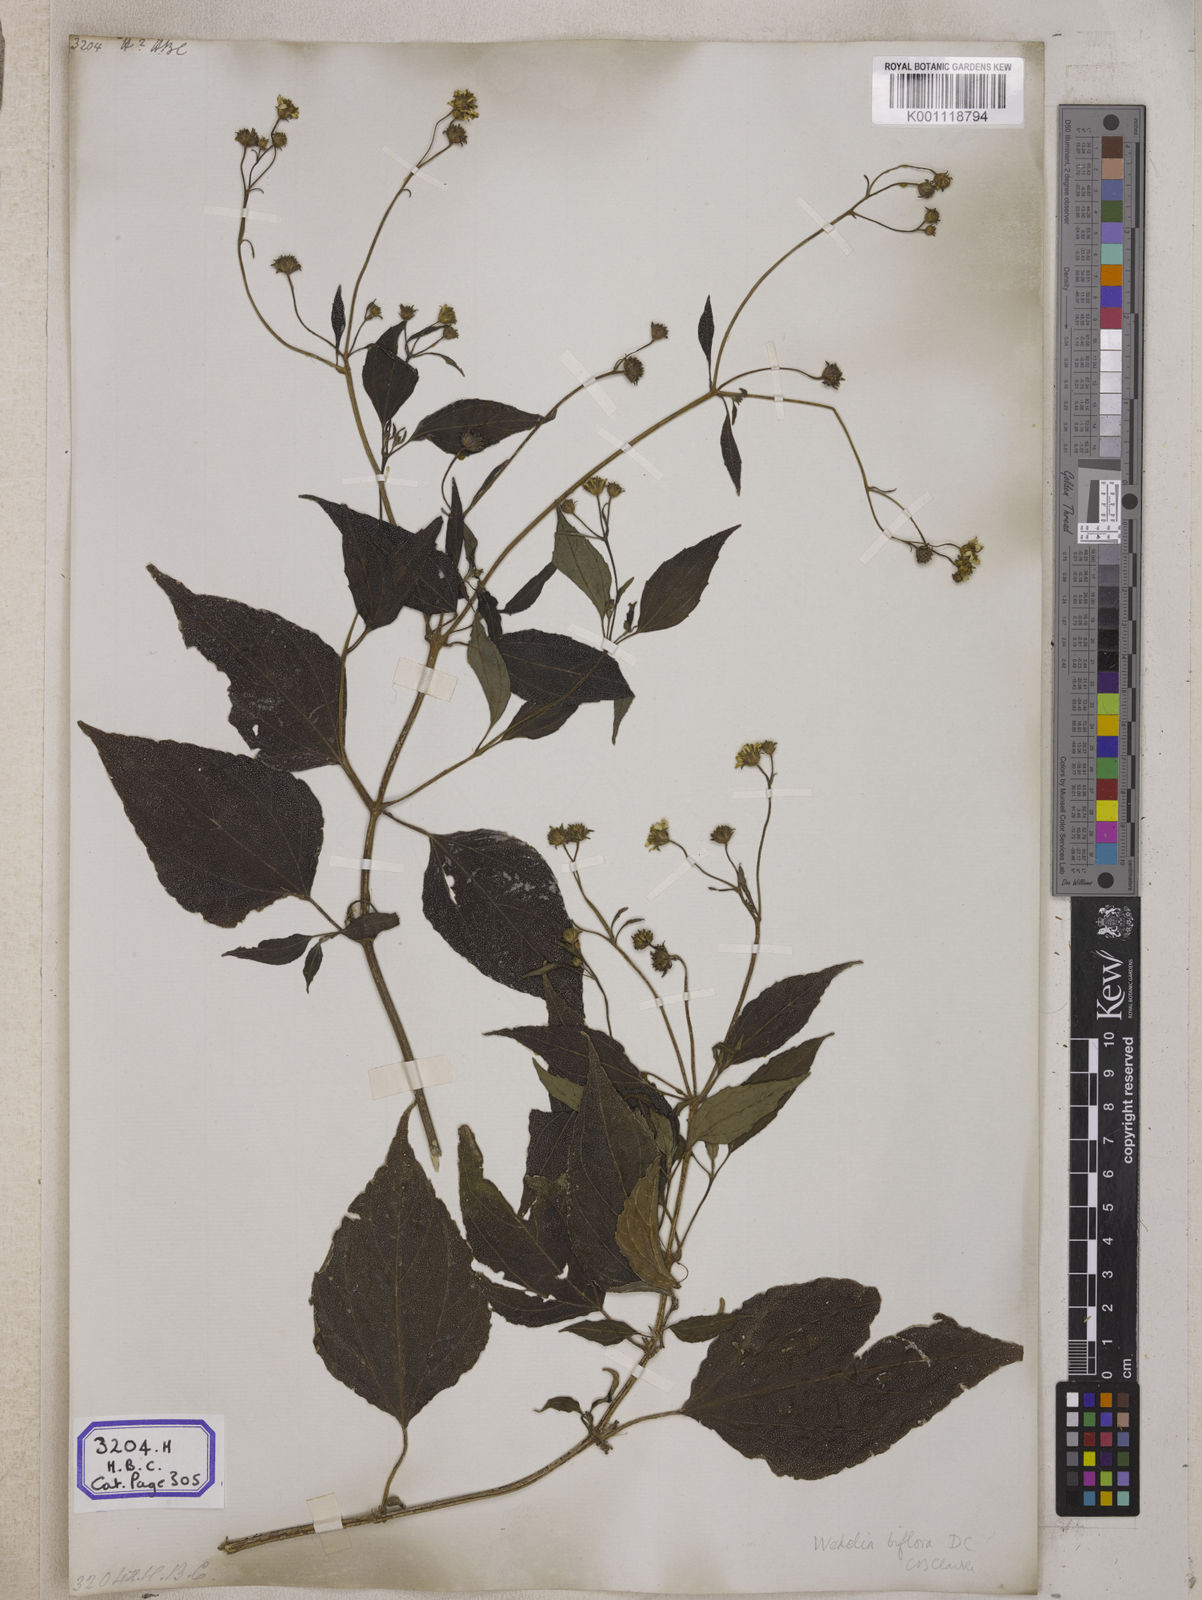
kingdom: Plantae
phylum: Tracheophyta
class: Magnoliopsida
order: Asterales
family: Asteraceae
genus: Blainvillea
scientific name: Blainvillea acmella
